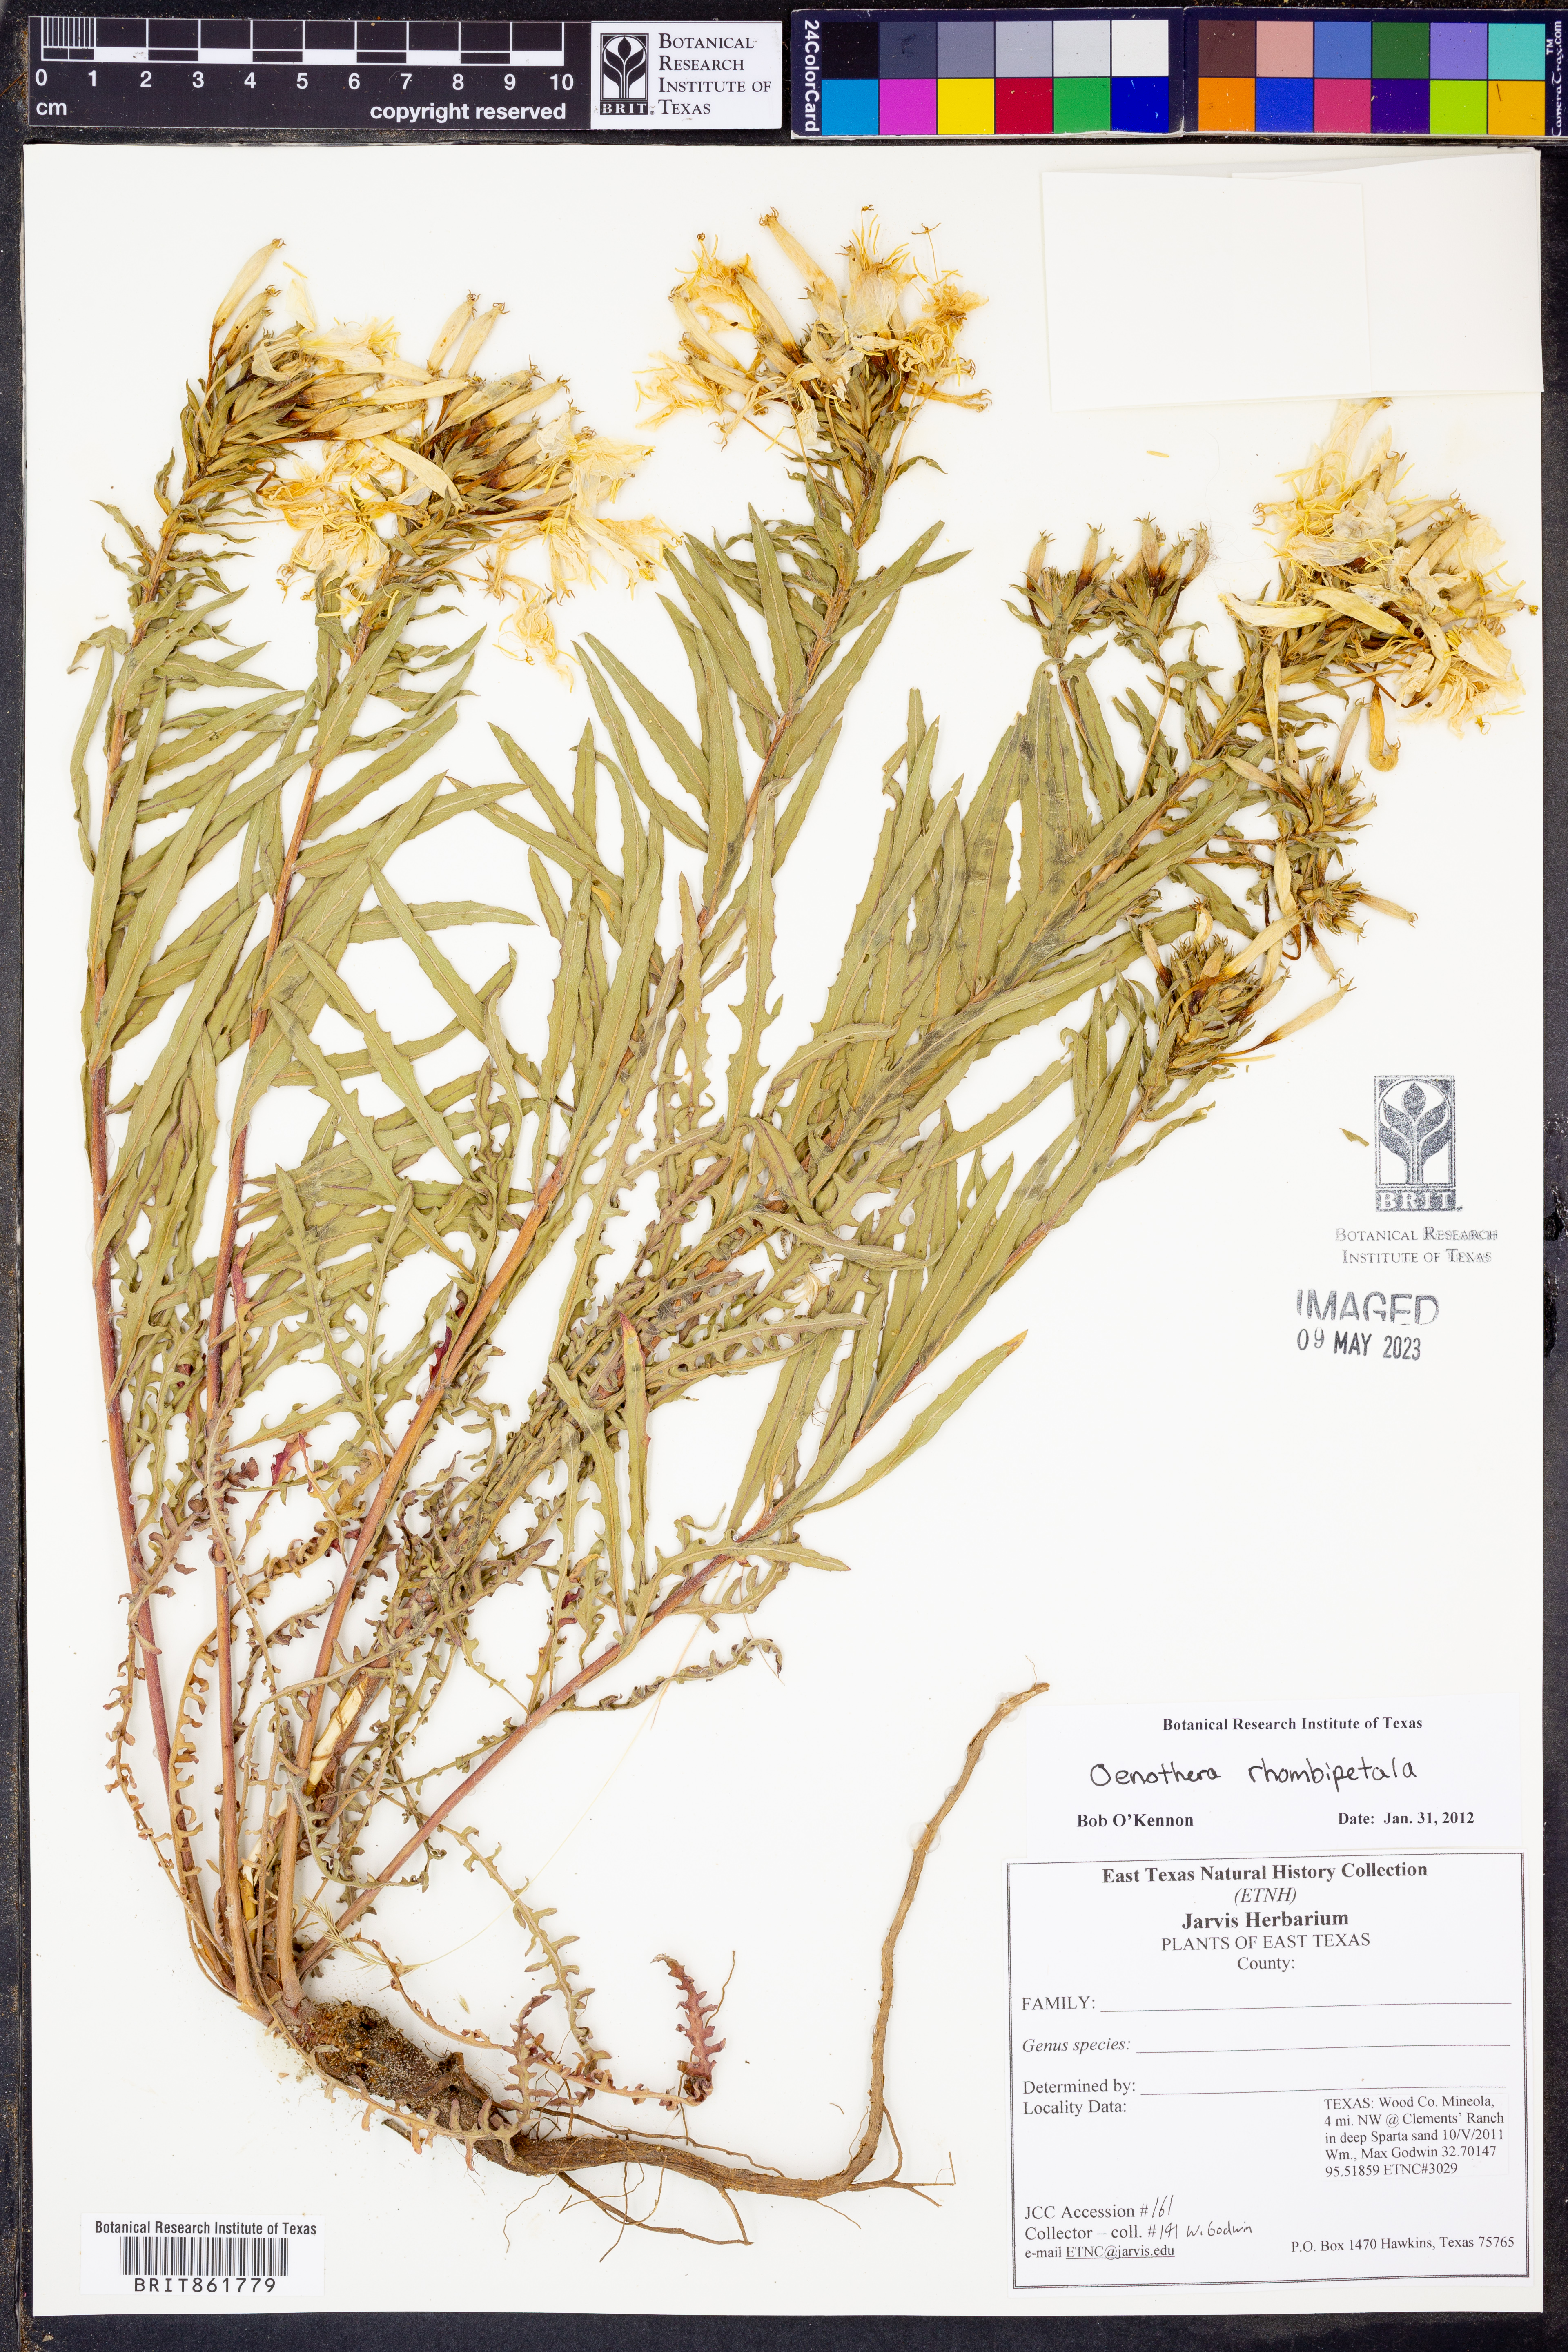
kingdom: Plantae
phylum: Tracheophyta
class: Magnoliopsida
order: Myrtales
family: Onagraceae
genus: Oenothera
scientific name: Oenothera rhombipetala
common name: Four-points evening-primrose
